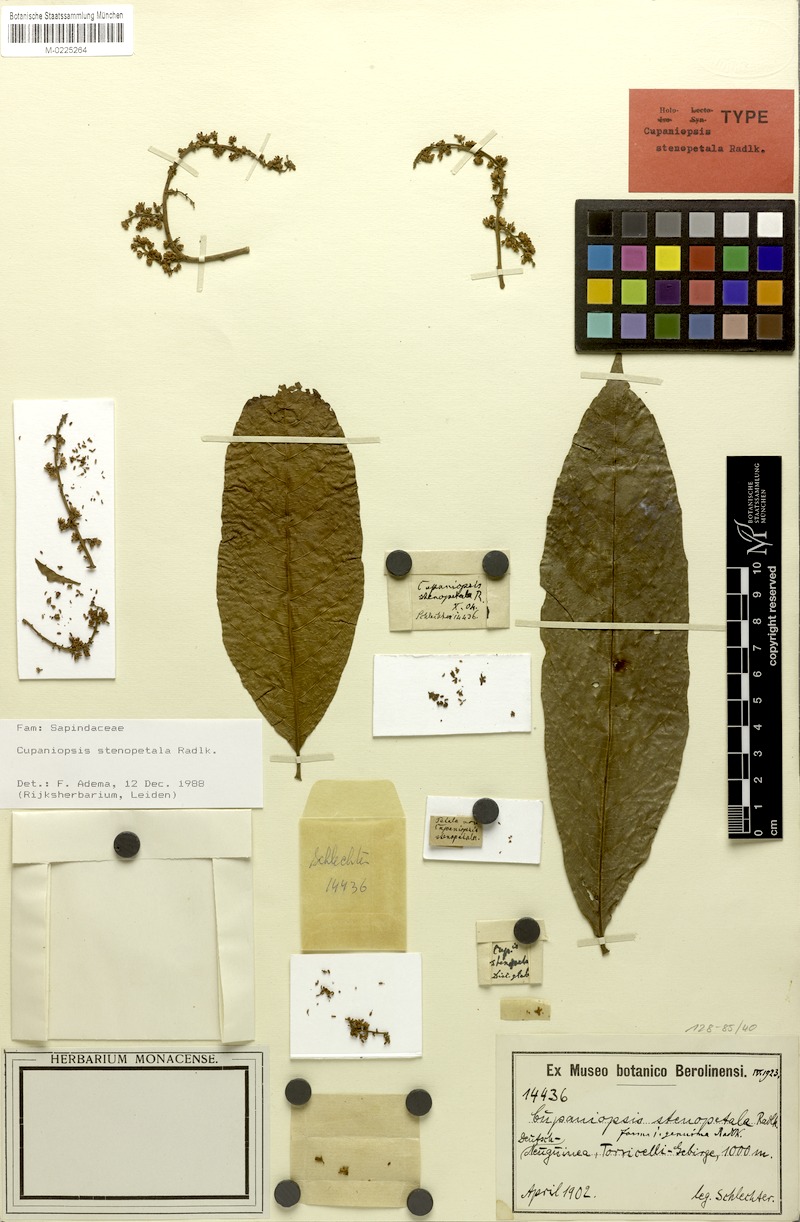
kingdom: Plantae
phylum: Tracheophyta
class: Magnoliopsida
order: Sapindales
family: Sapindaceae
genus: Cupaniopsis
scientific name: Cupaniopsis stenopetala
